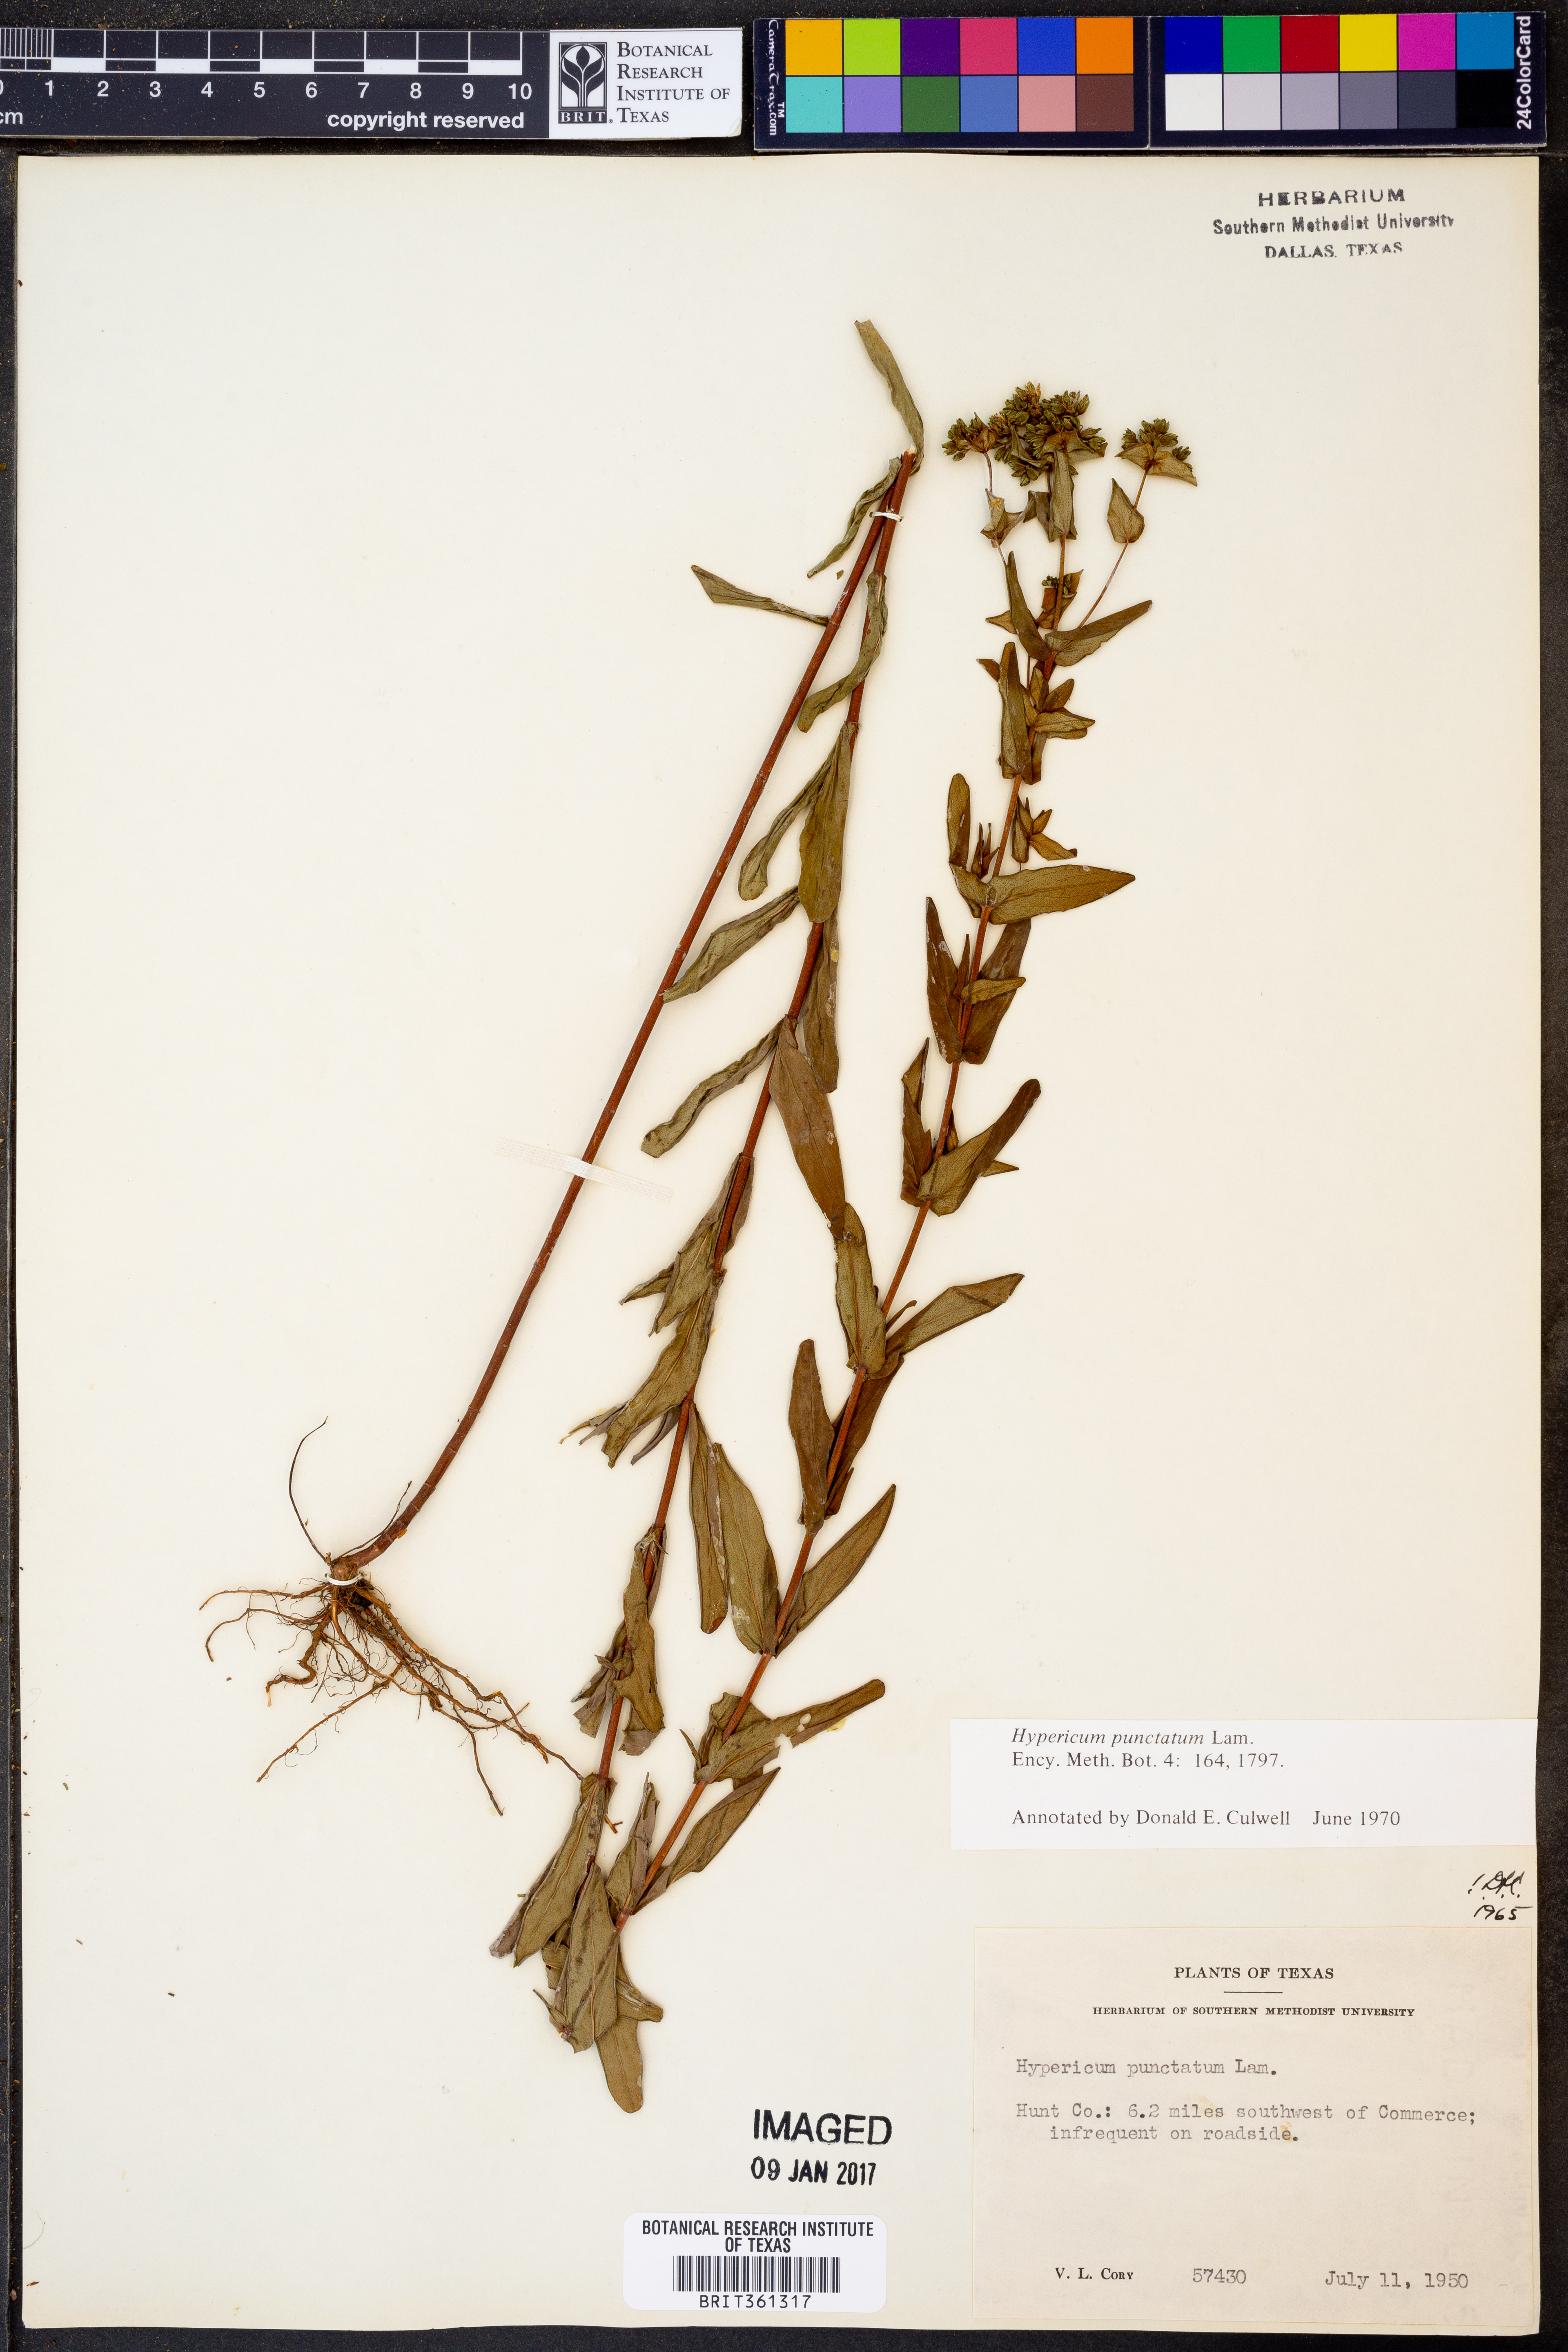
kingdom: Plantae
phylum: Tracheophyta
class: Magnoliopsida
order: Malpighiales
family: Hypericaceae
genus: Hypericum
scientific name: Hypericum punctatum
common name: Spotted st. john's-wort
